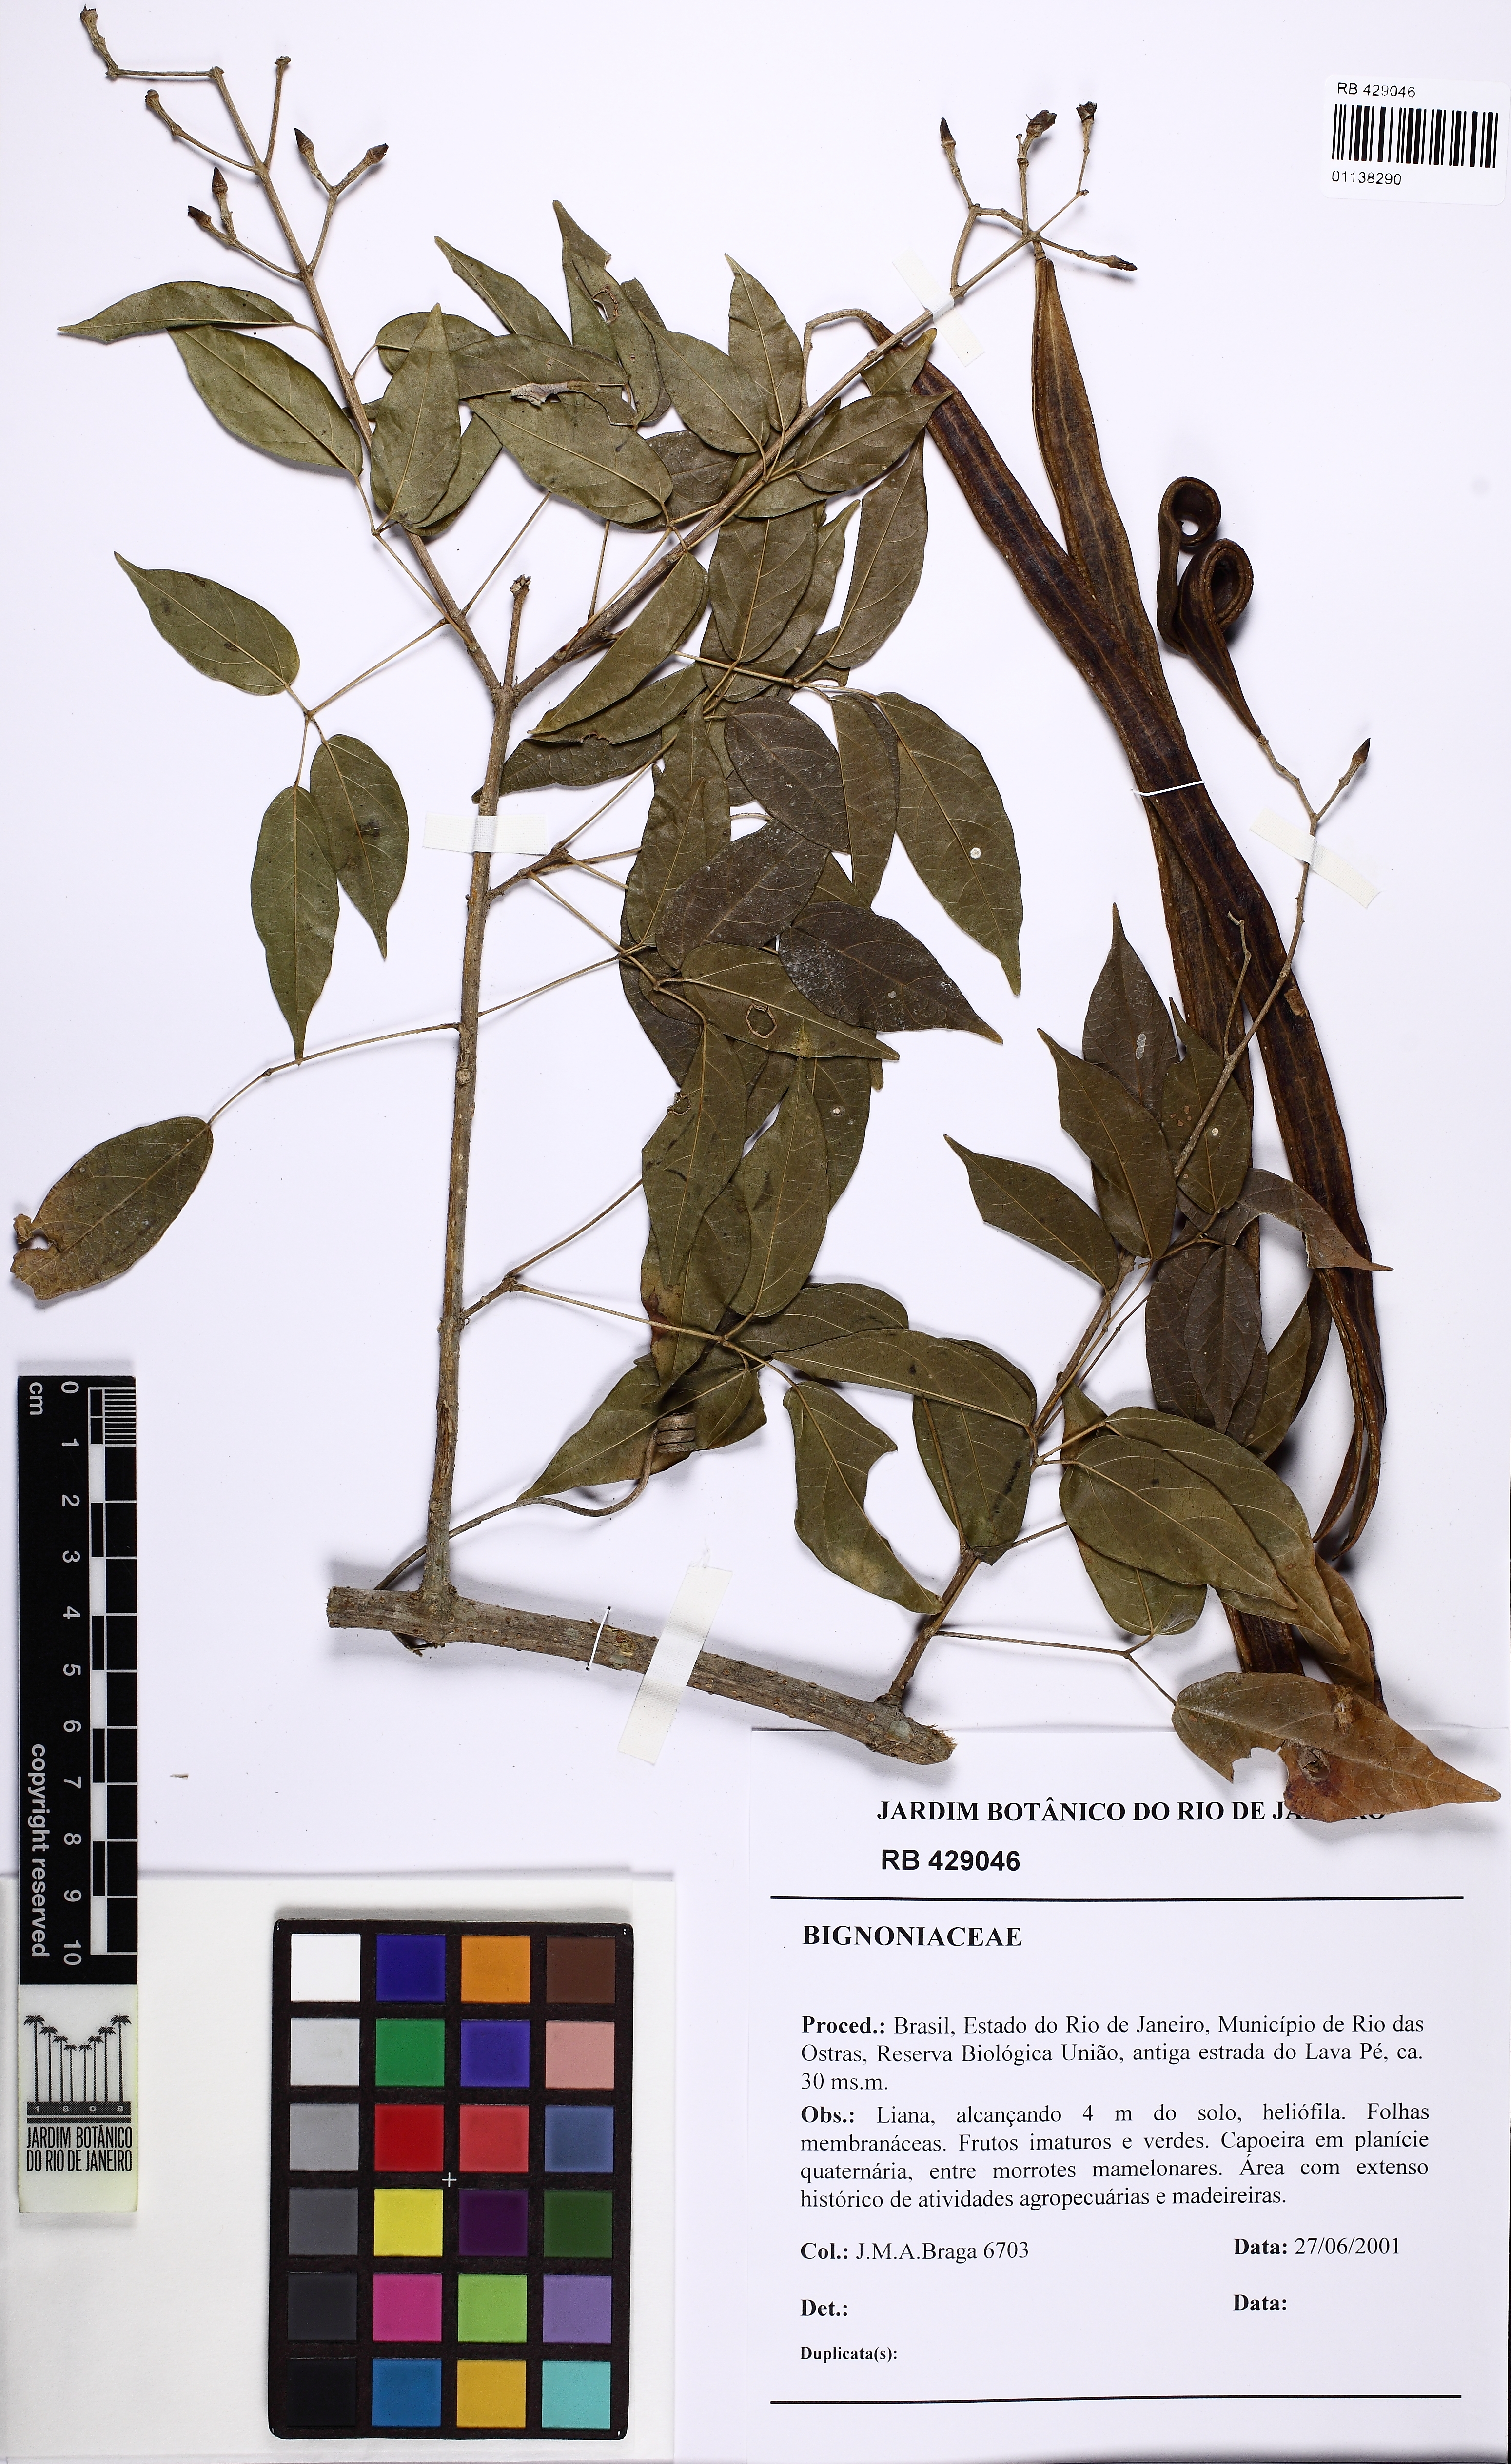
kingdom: Plantae
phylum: Tracheophyta
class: Magnoliopsida
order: Lamiales
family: Bignoniaceae
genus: Tanaecium
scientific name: Tanaecium selloi
